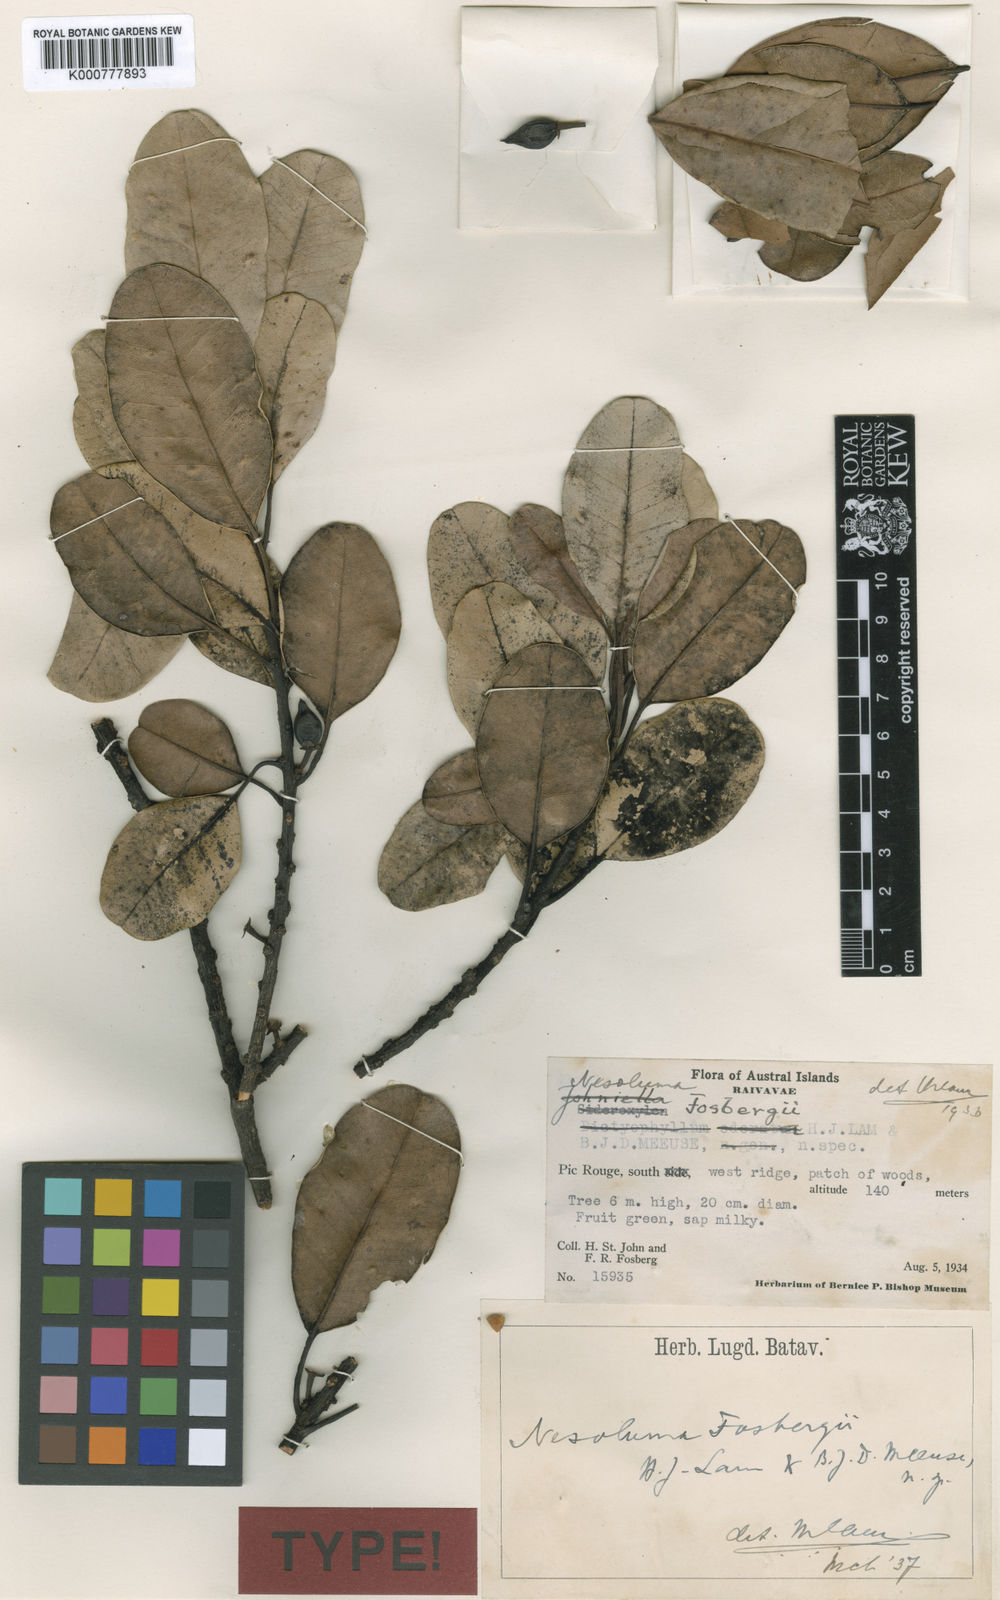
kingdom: Plantae
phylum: Tracheophyta
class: Magnoliopsida
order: Ericales
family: Sapotaceae
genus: Sideroxylon
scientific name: Sideroxylon
